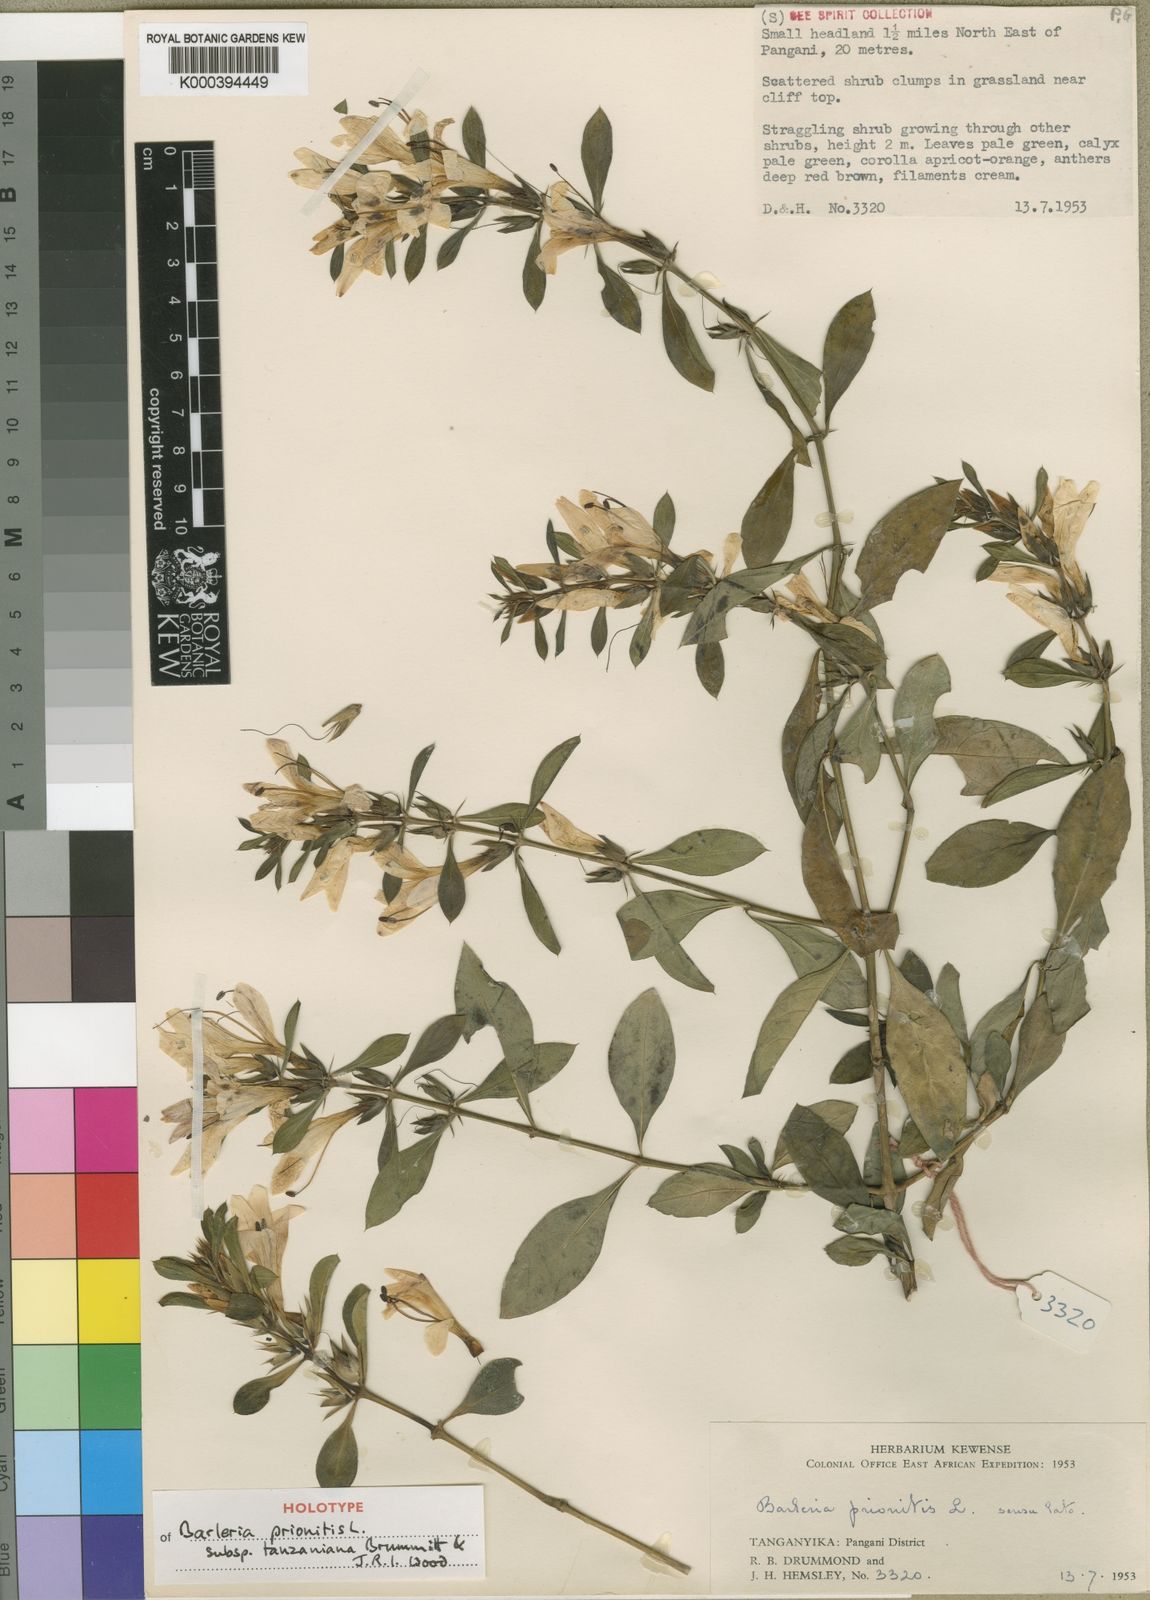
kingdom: Plantae
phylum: Tracheophyta
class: Magnoliopsida
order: Lamiales
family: Acanthaceae
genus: Barleria
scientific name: Barleria prionitis
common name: Barleria
